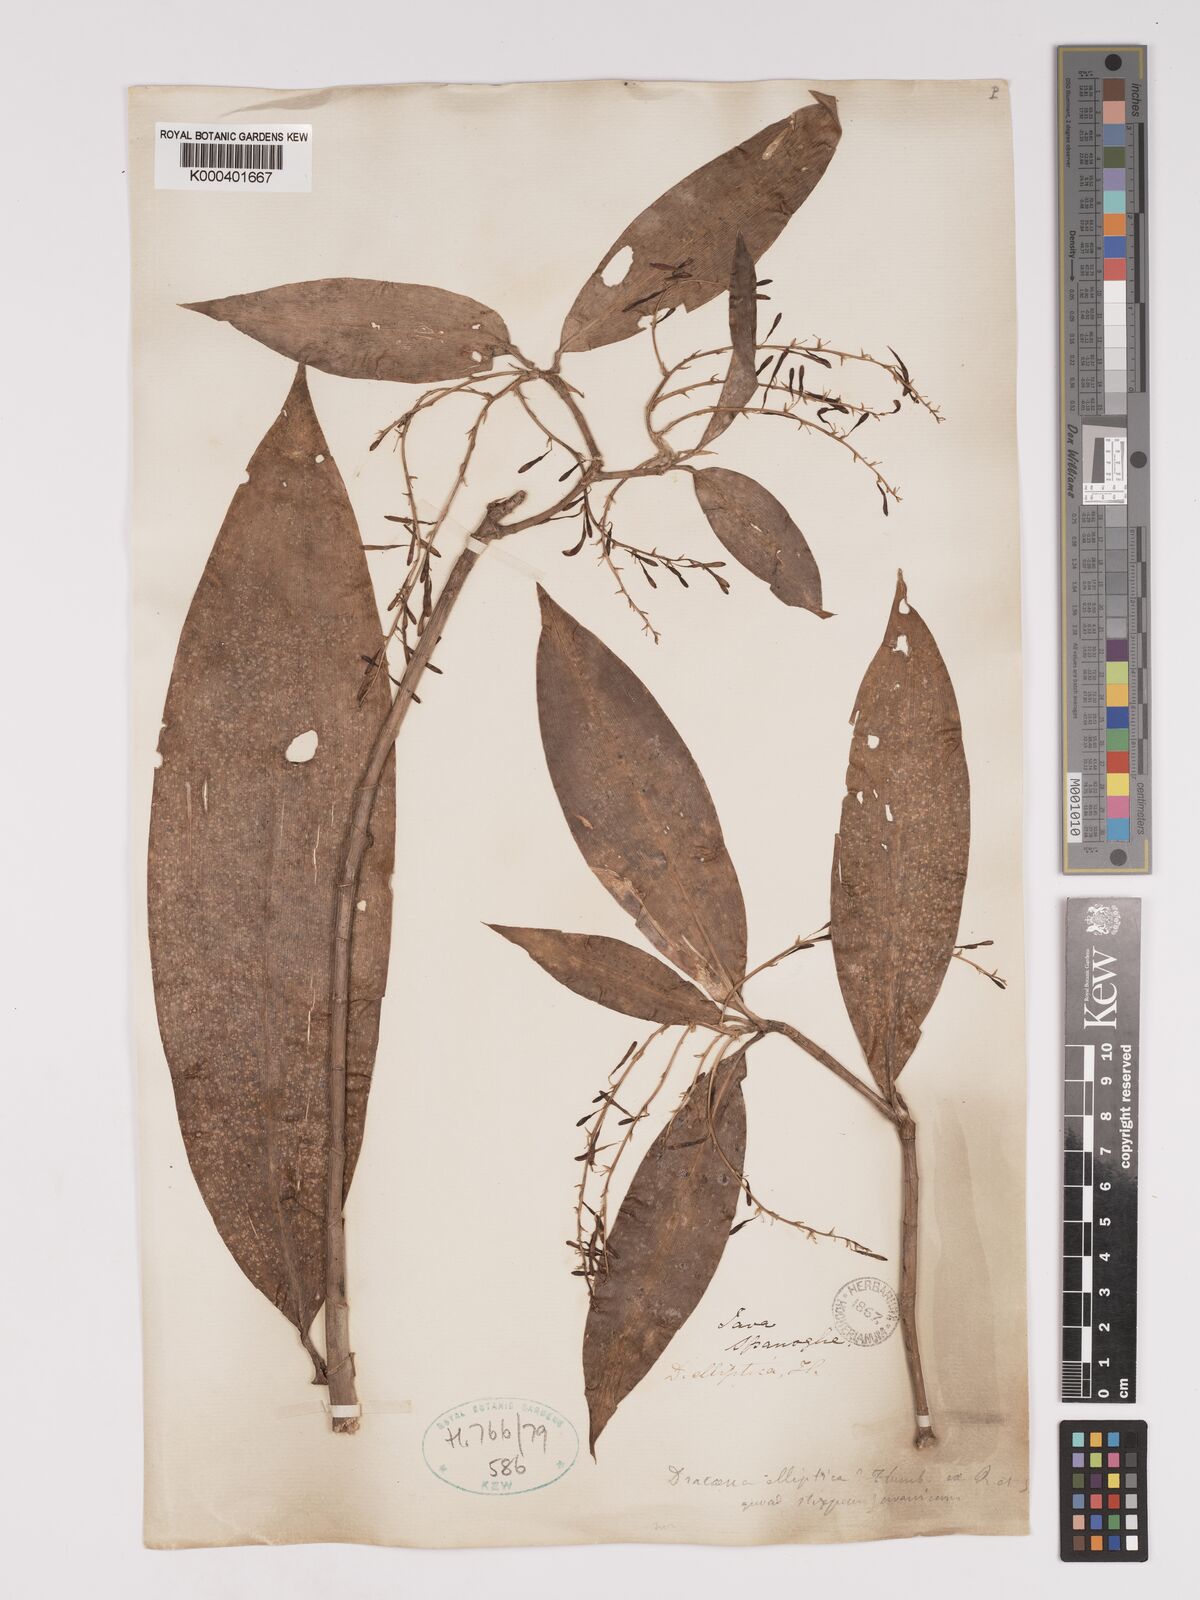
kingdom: Plantae
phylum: Tracheophyta
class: Liliopsida
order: Asparagales
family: Asparagaceae
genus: Dracaena
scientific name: Dracaena elliptica
